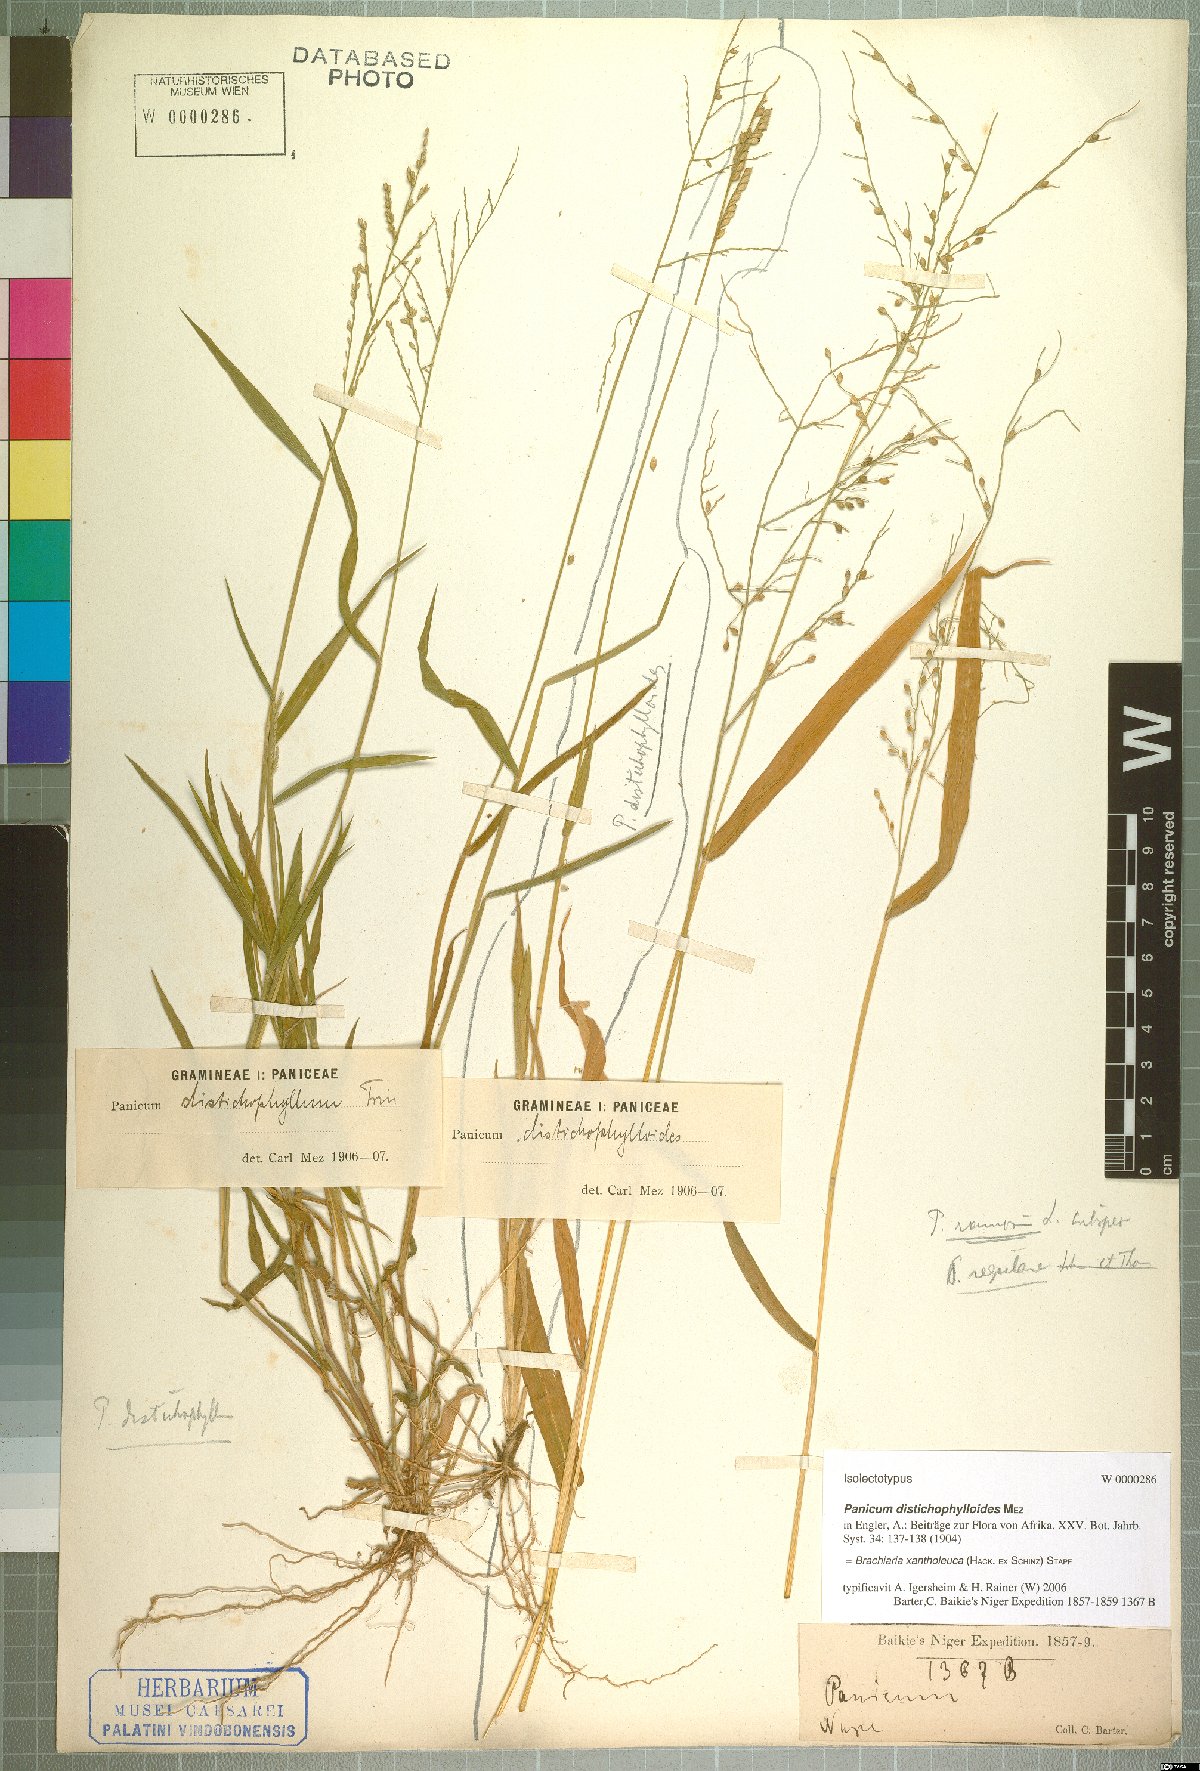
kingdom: Plantae
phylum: Tracheophyta
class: Liliopsida
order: Poales
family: Poaceae
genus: Urochloa
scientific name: Urochloa xantholeuca
